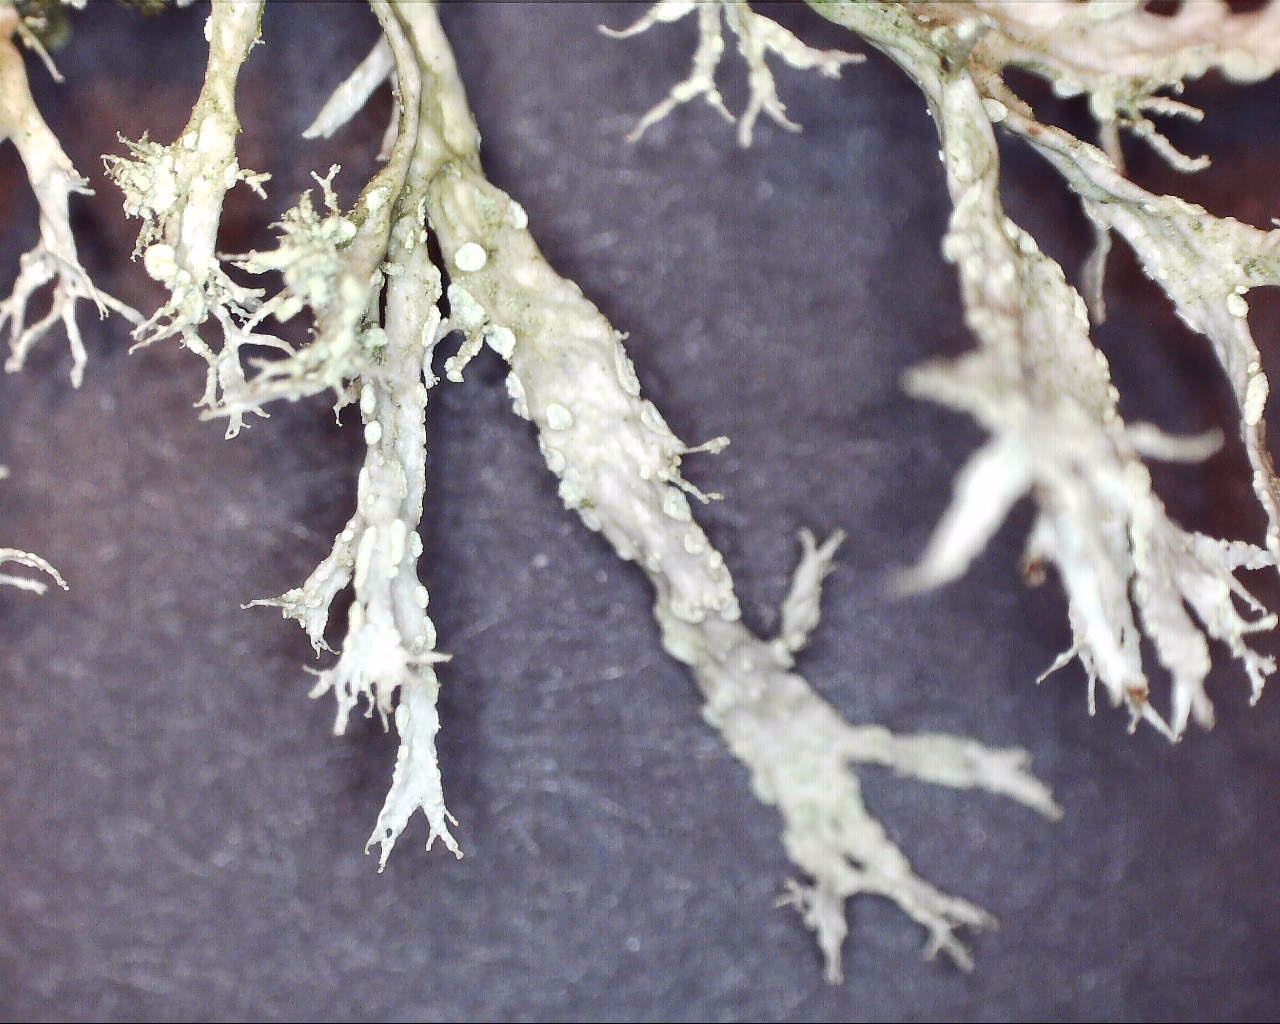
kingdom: Fungi
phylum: Ascomycota
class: Lecanoromycetes
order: Lecanorales
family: Ramalinaceae
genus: Ramalina
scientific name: Ramalina farinacea
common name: melet grenlav
